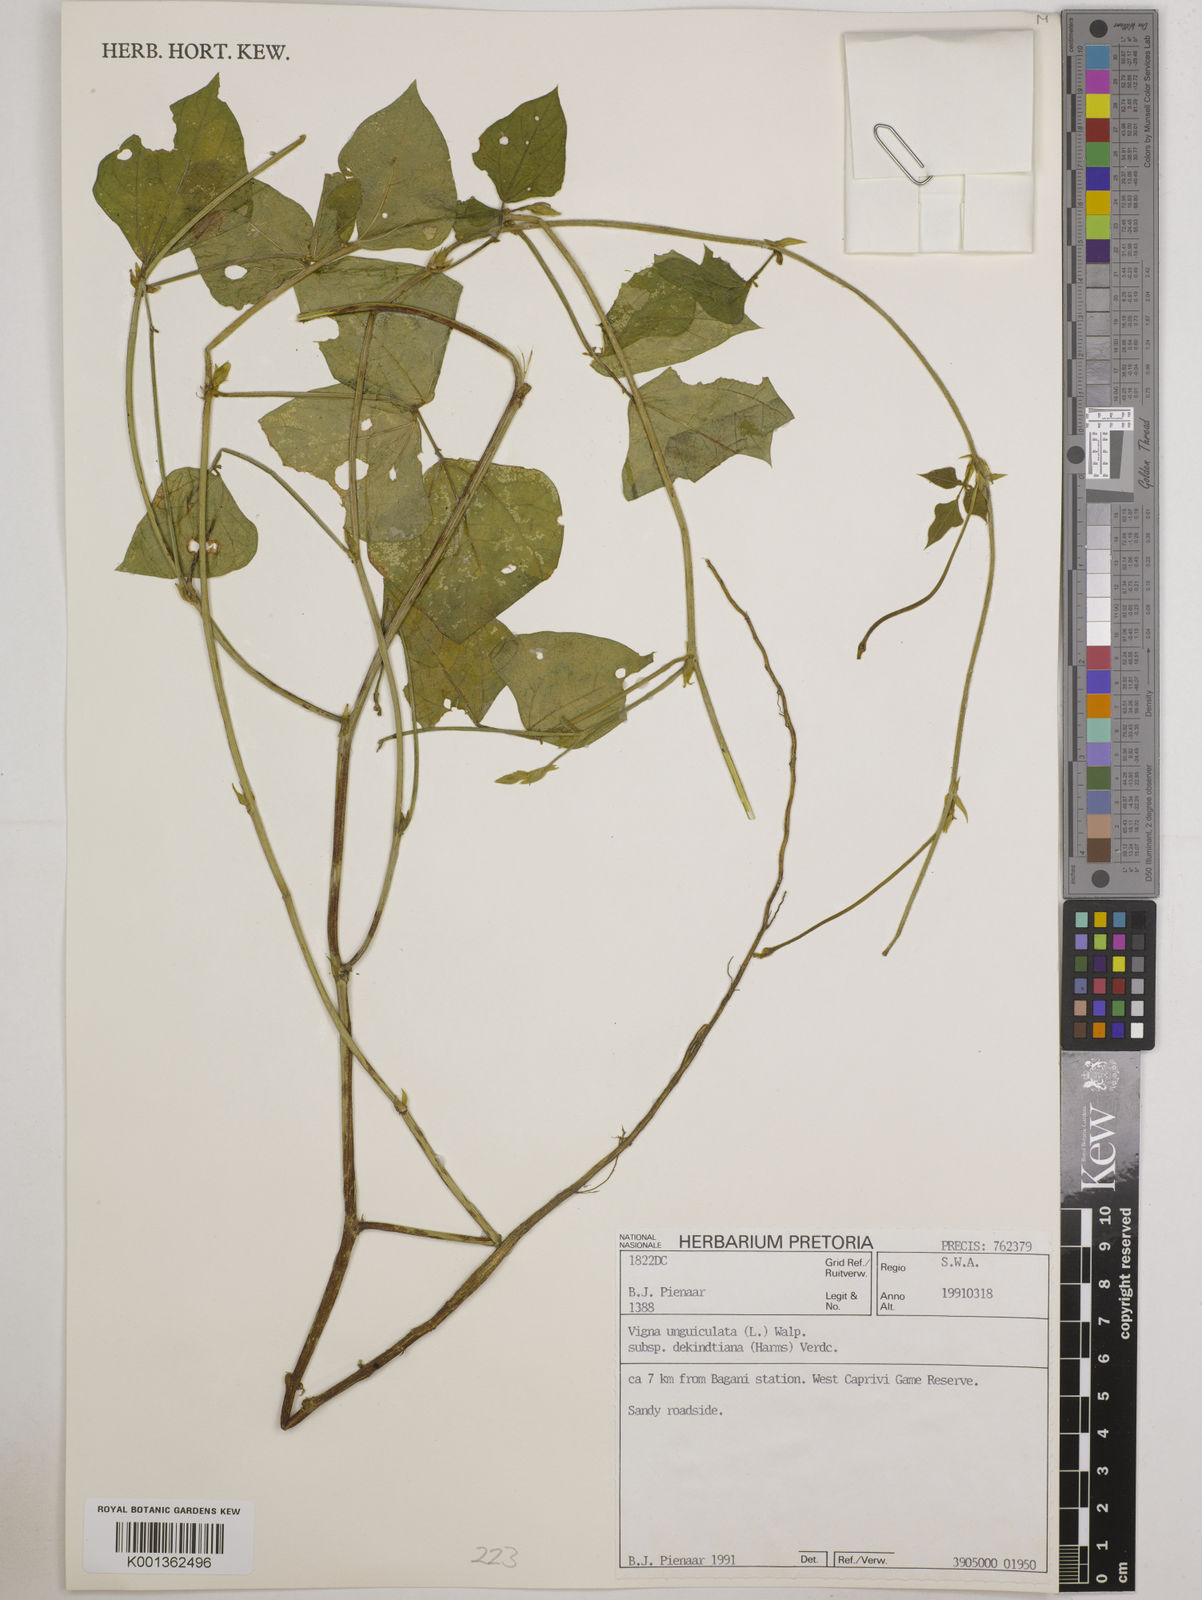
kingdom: Plantae
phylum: Tracheophyta
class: Magnoliopsida
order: Fabales
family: Fabaceae
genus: Vigna
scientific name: Vigna
